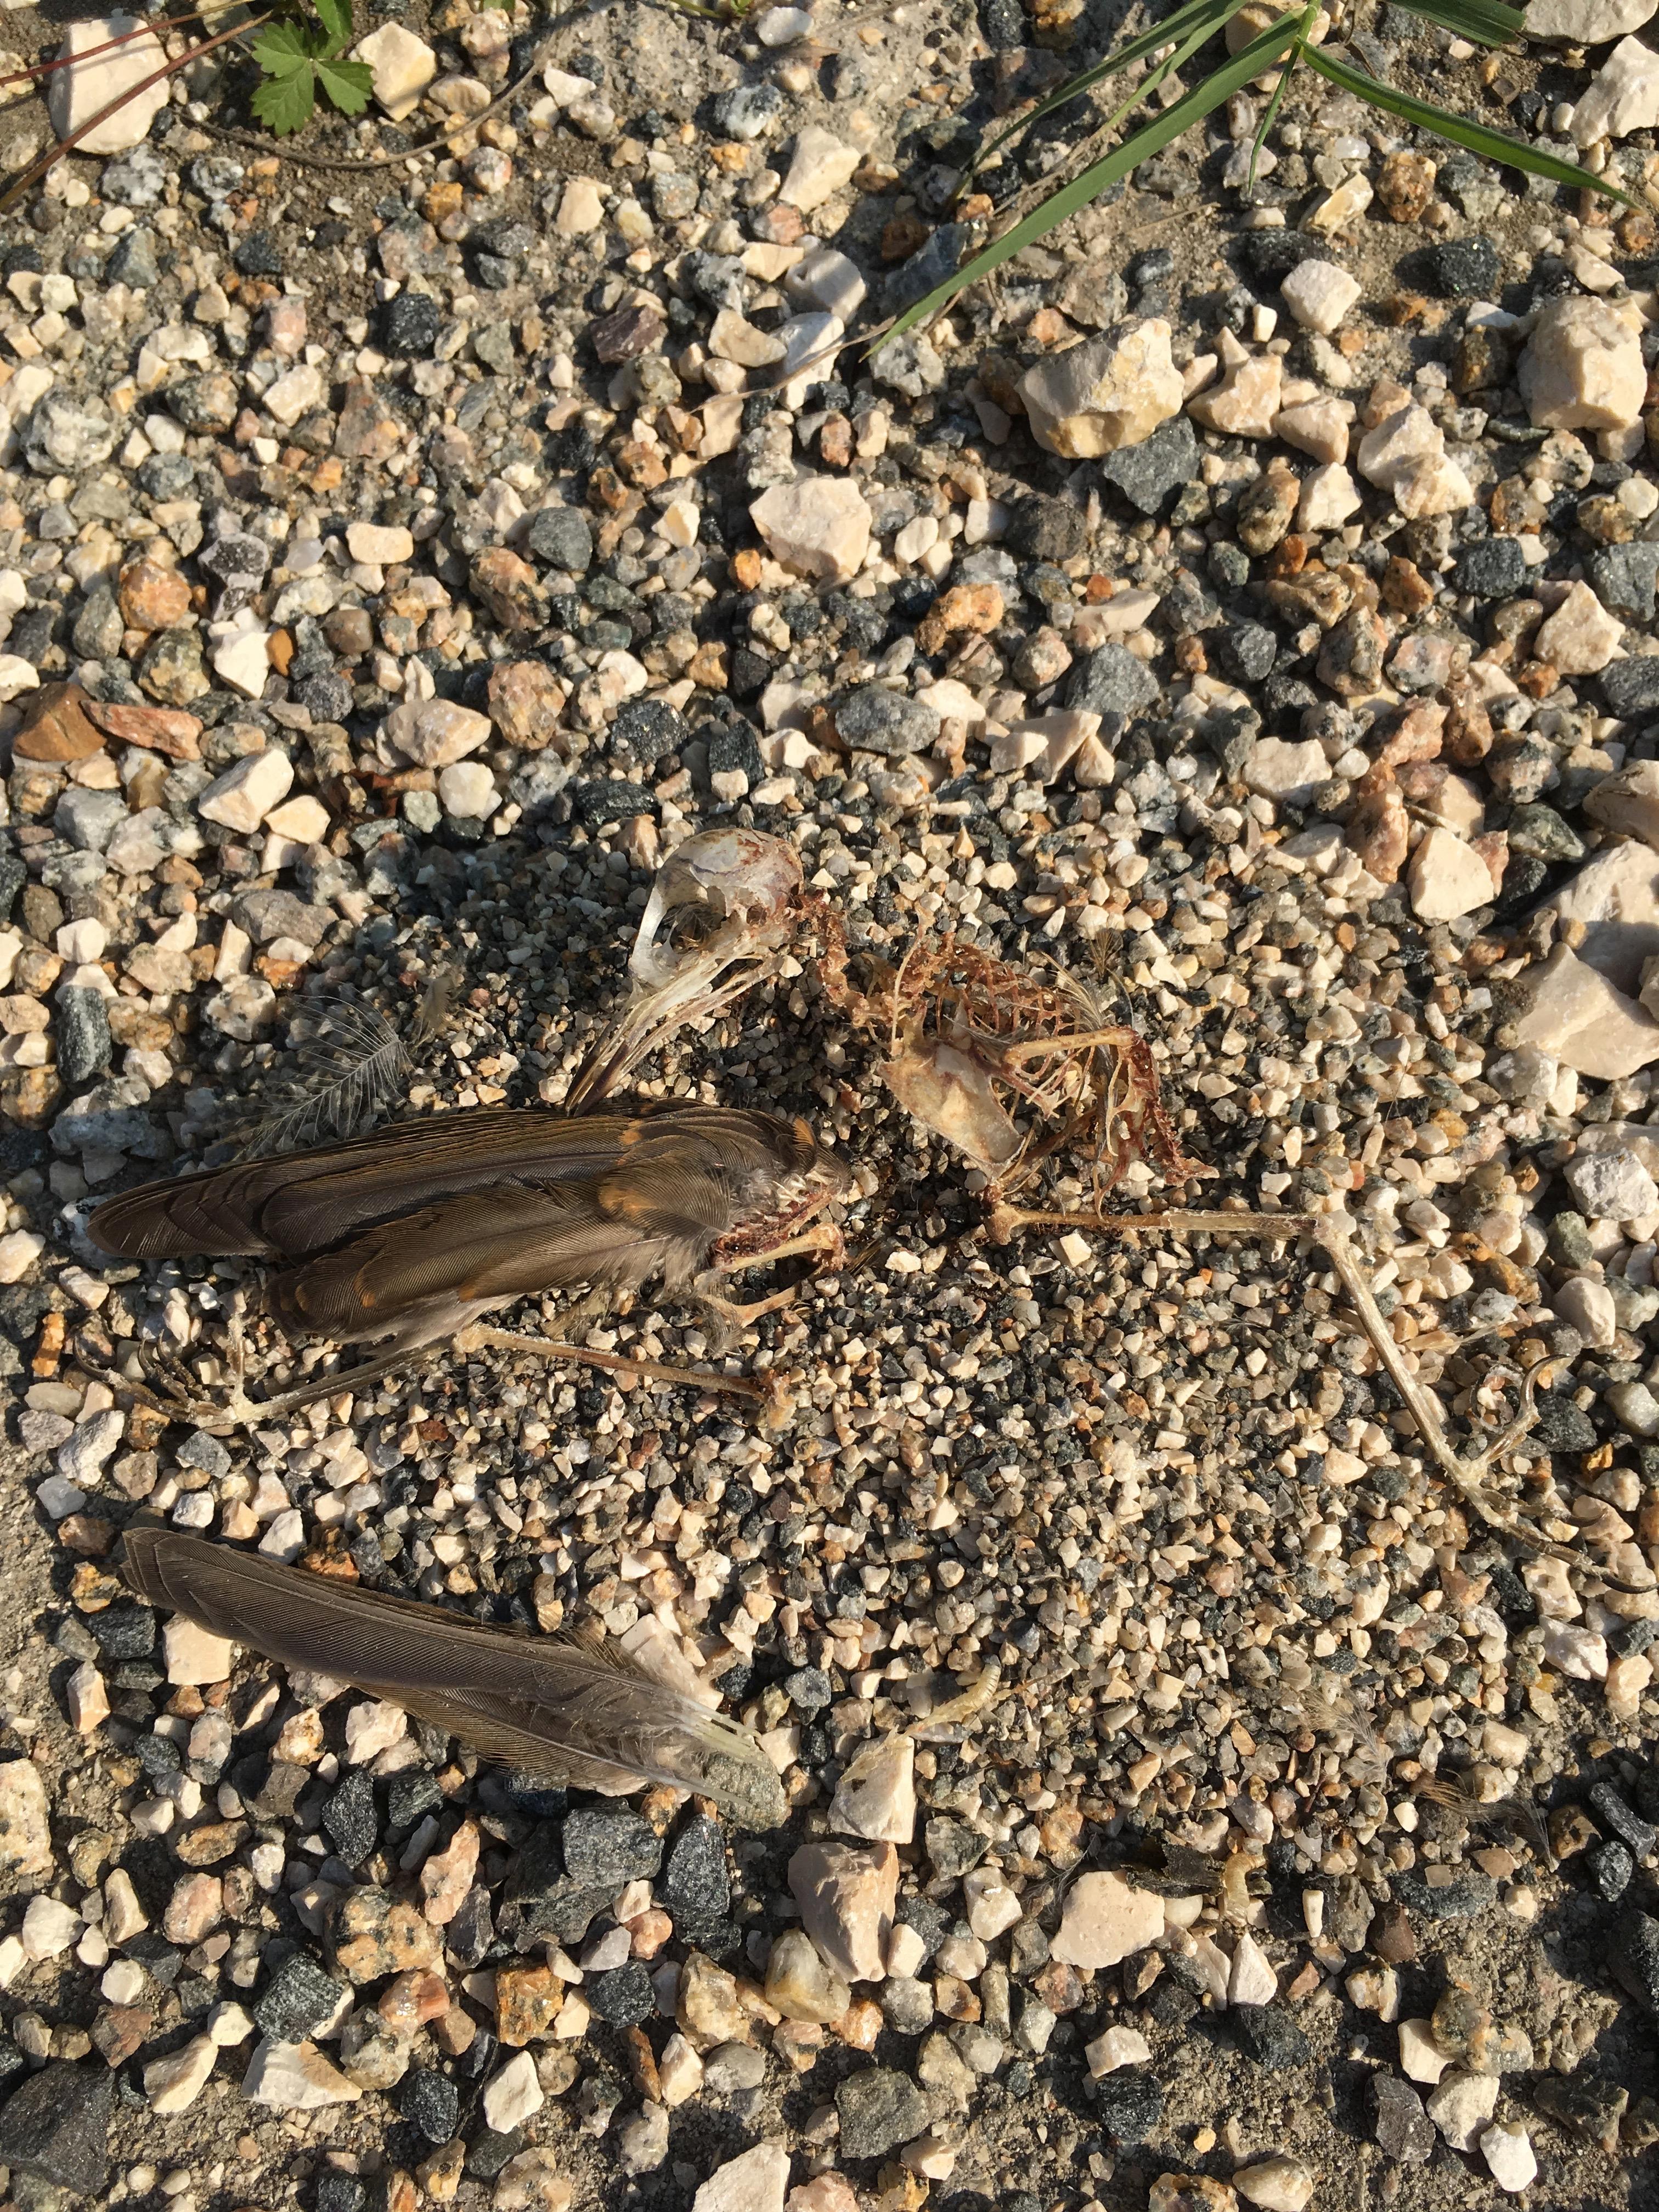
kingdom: Animalia
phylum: Chordata
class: Aves
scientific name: Aves
